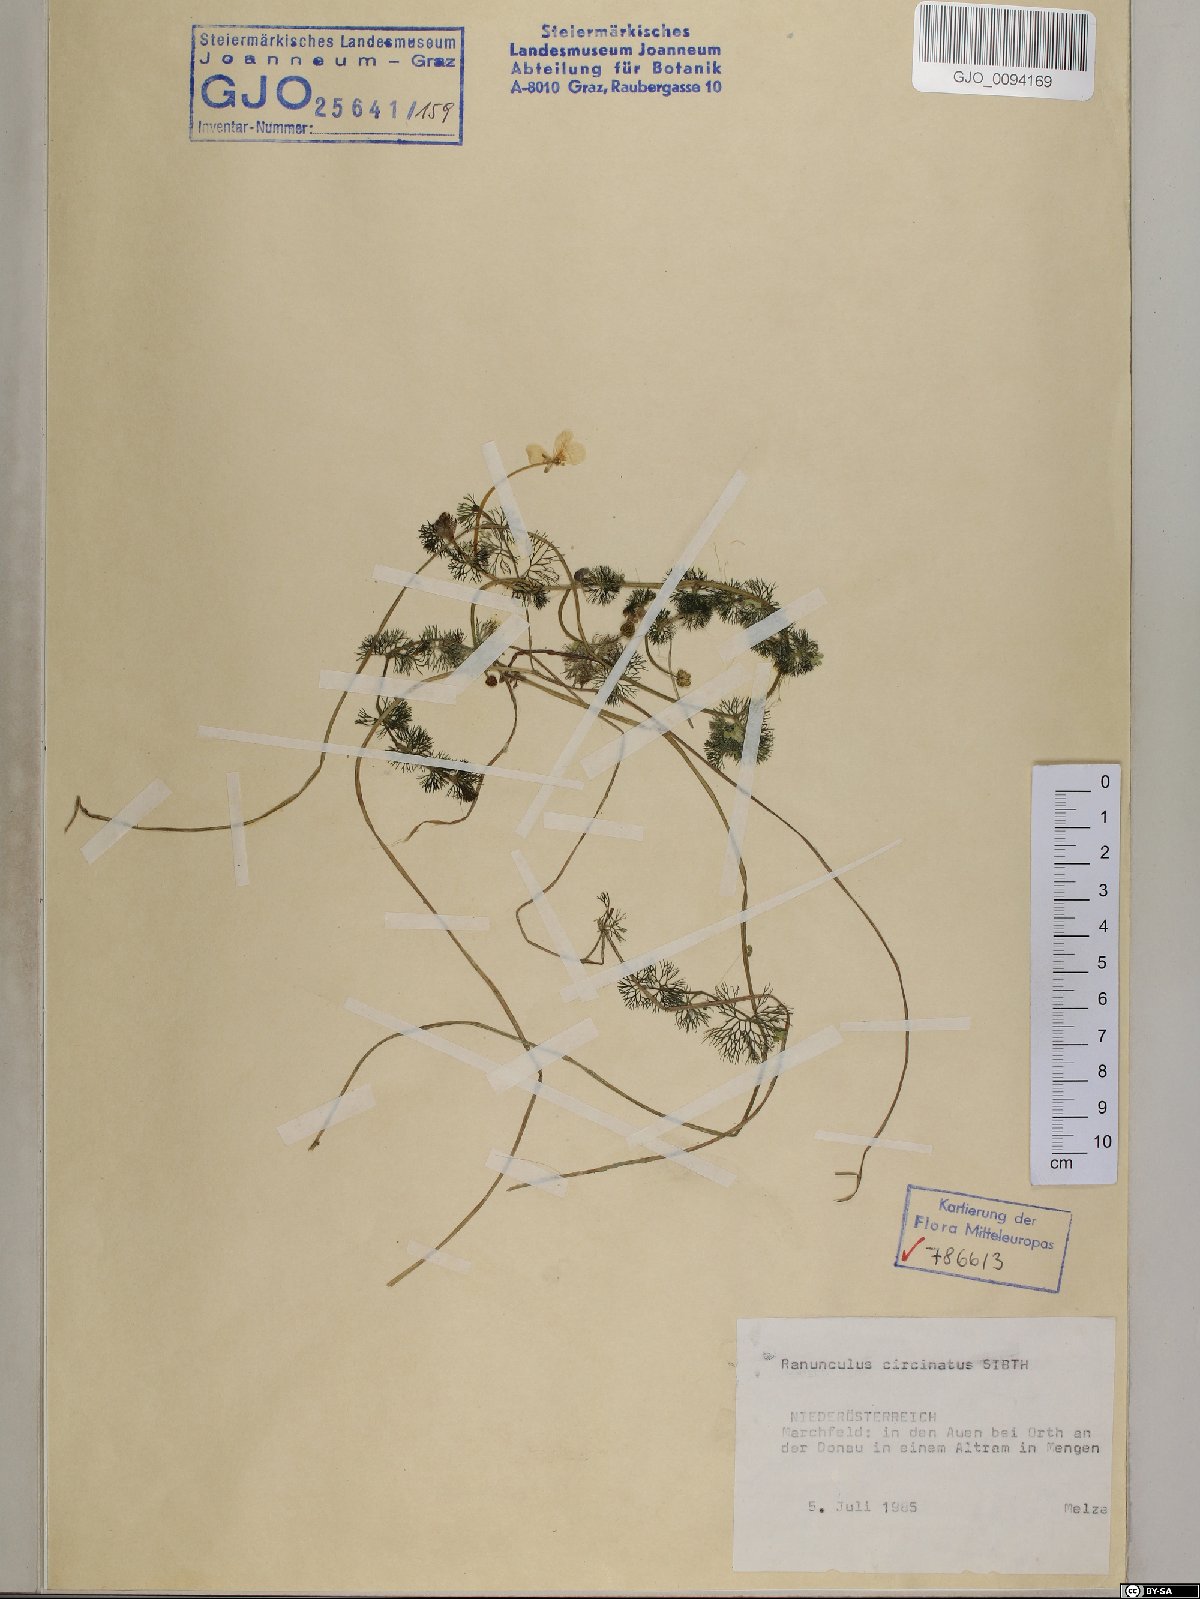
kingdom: Plantae
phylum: Tracheophyta
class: Magnoliopsida
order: Ranunculales
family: Ranunculaceae
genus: Ranunculus
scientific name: Ranunculus circinatus
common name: Fan-leaved water-crowfoot
